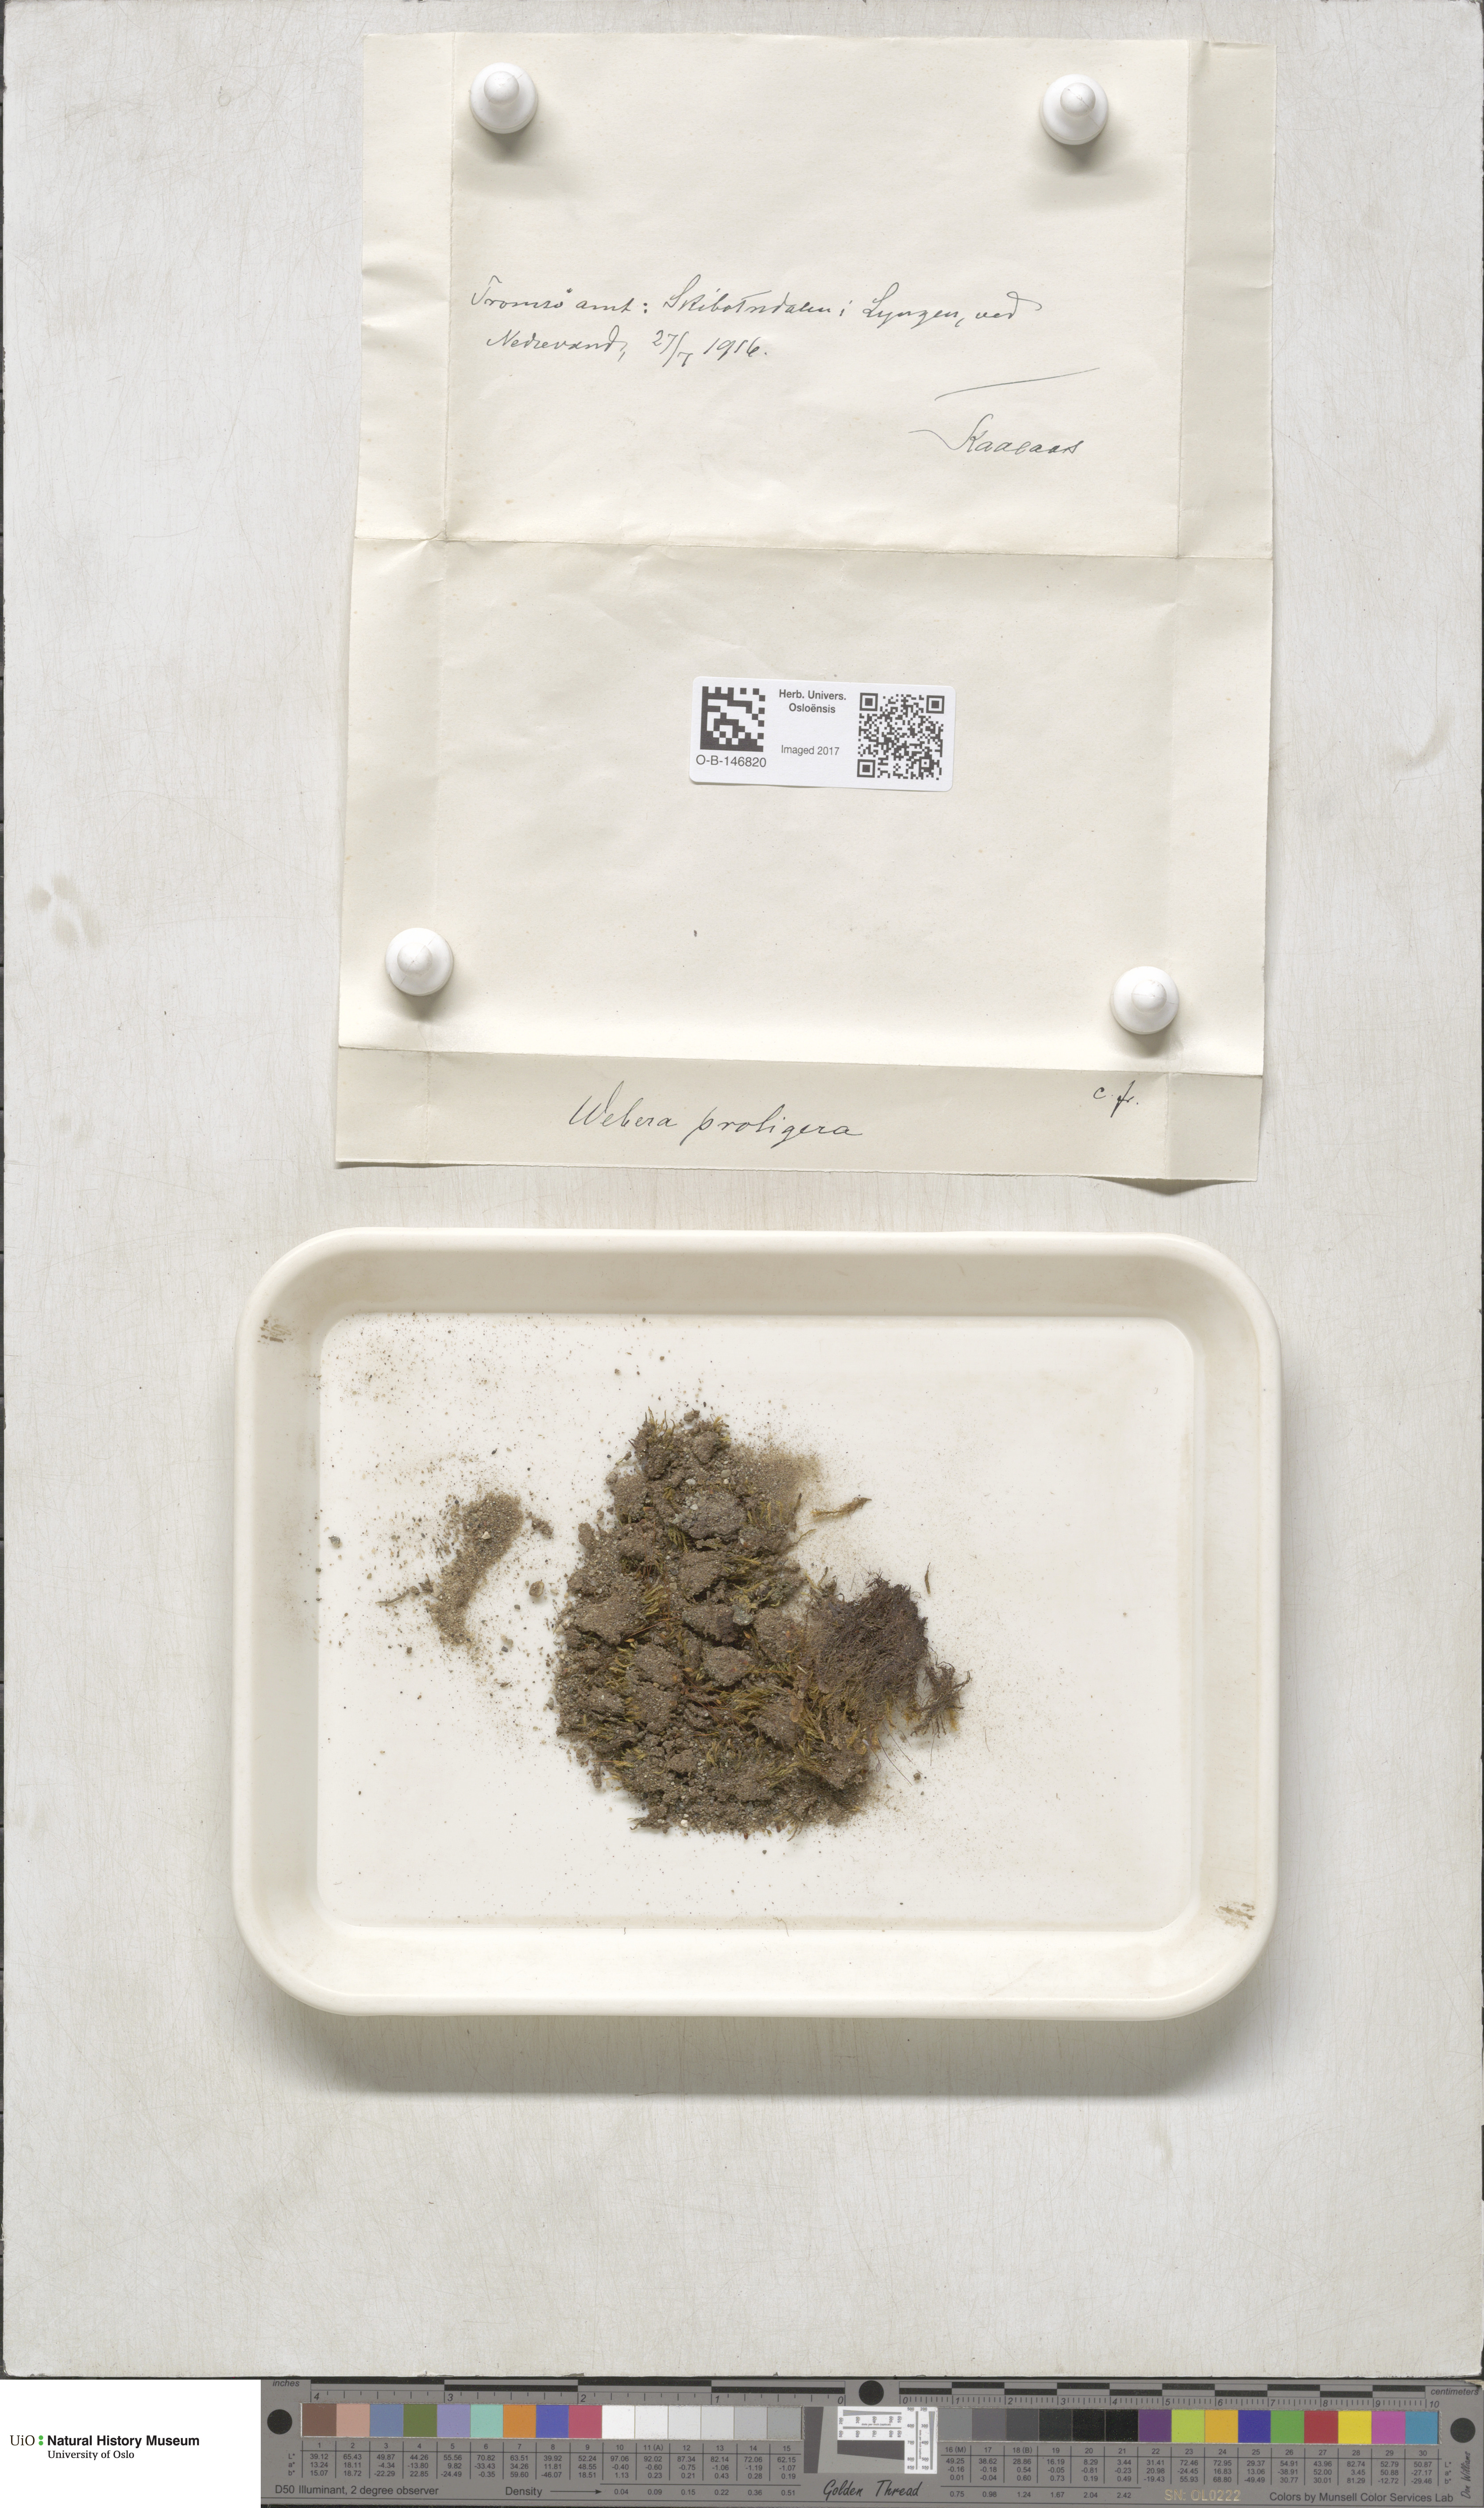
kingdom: Plantae
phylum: Bryophyta
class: Bryopsida
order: Bryales
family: Mniaceae
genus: Pohlia
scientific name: Pohlia proligera
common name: Cottony nodding moss
